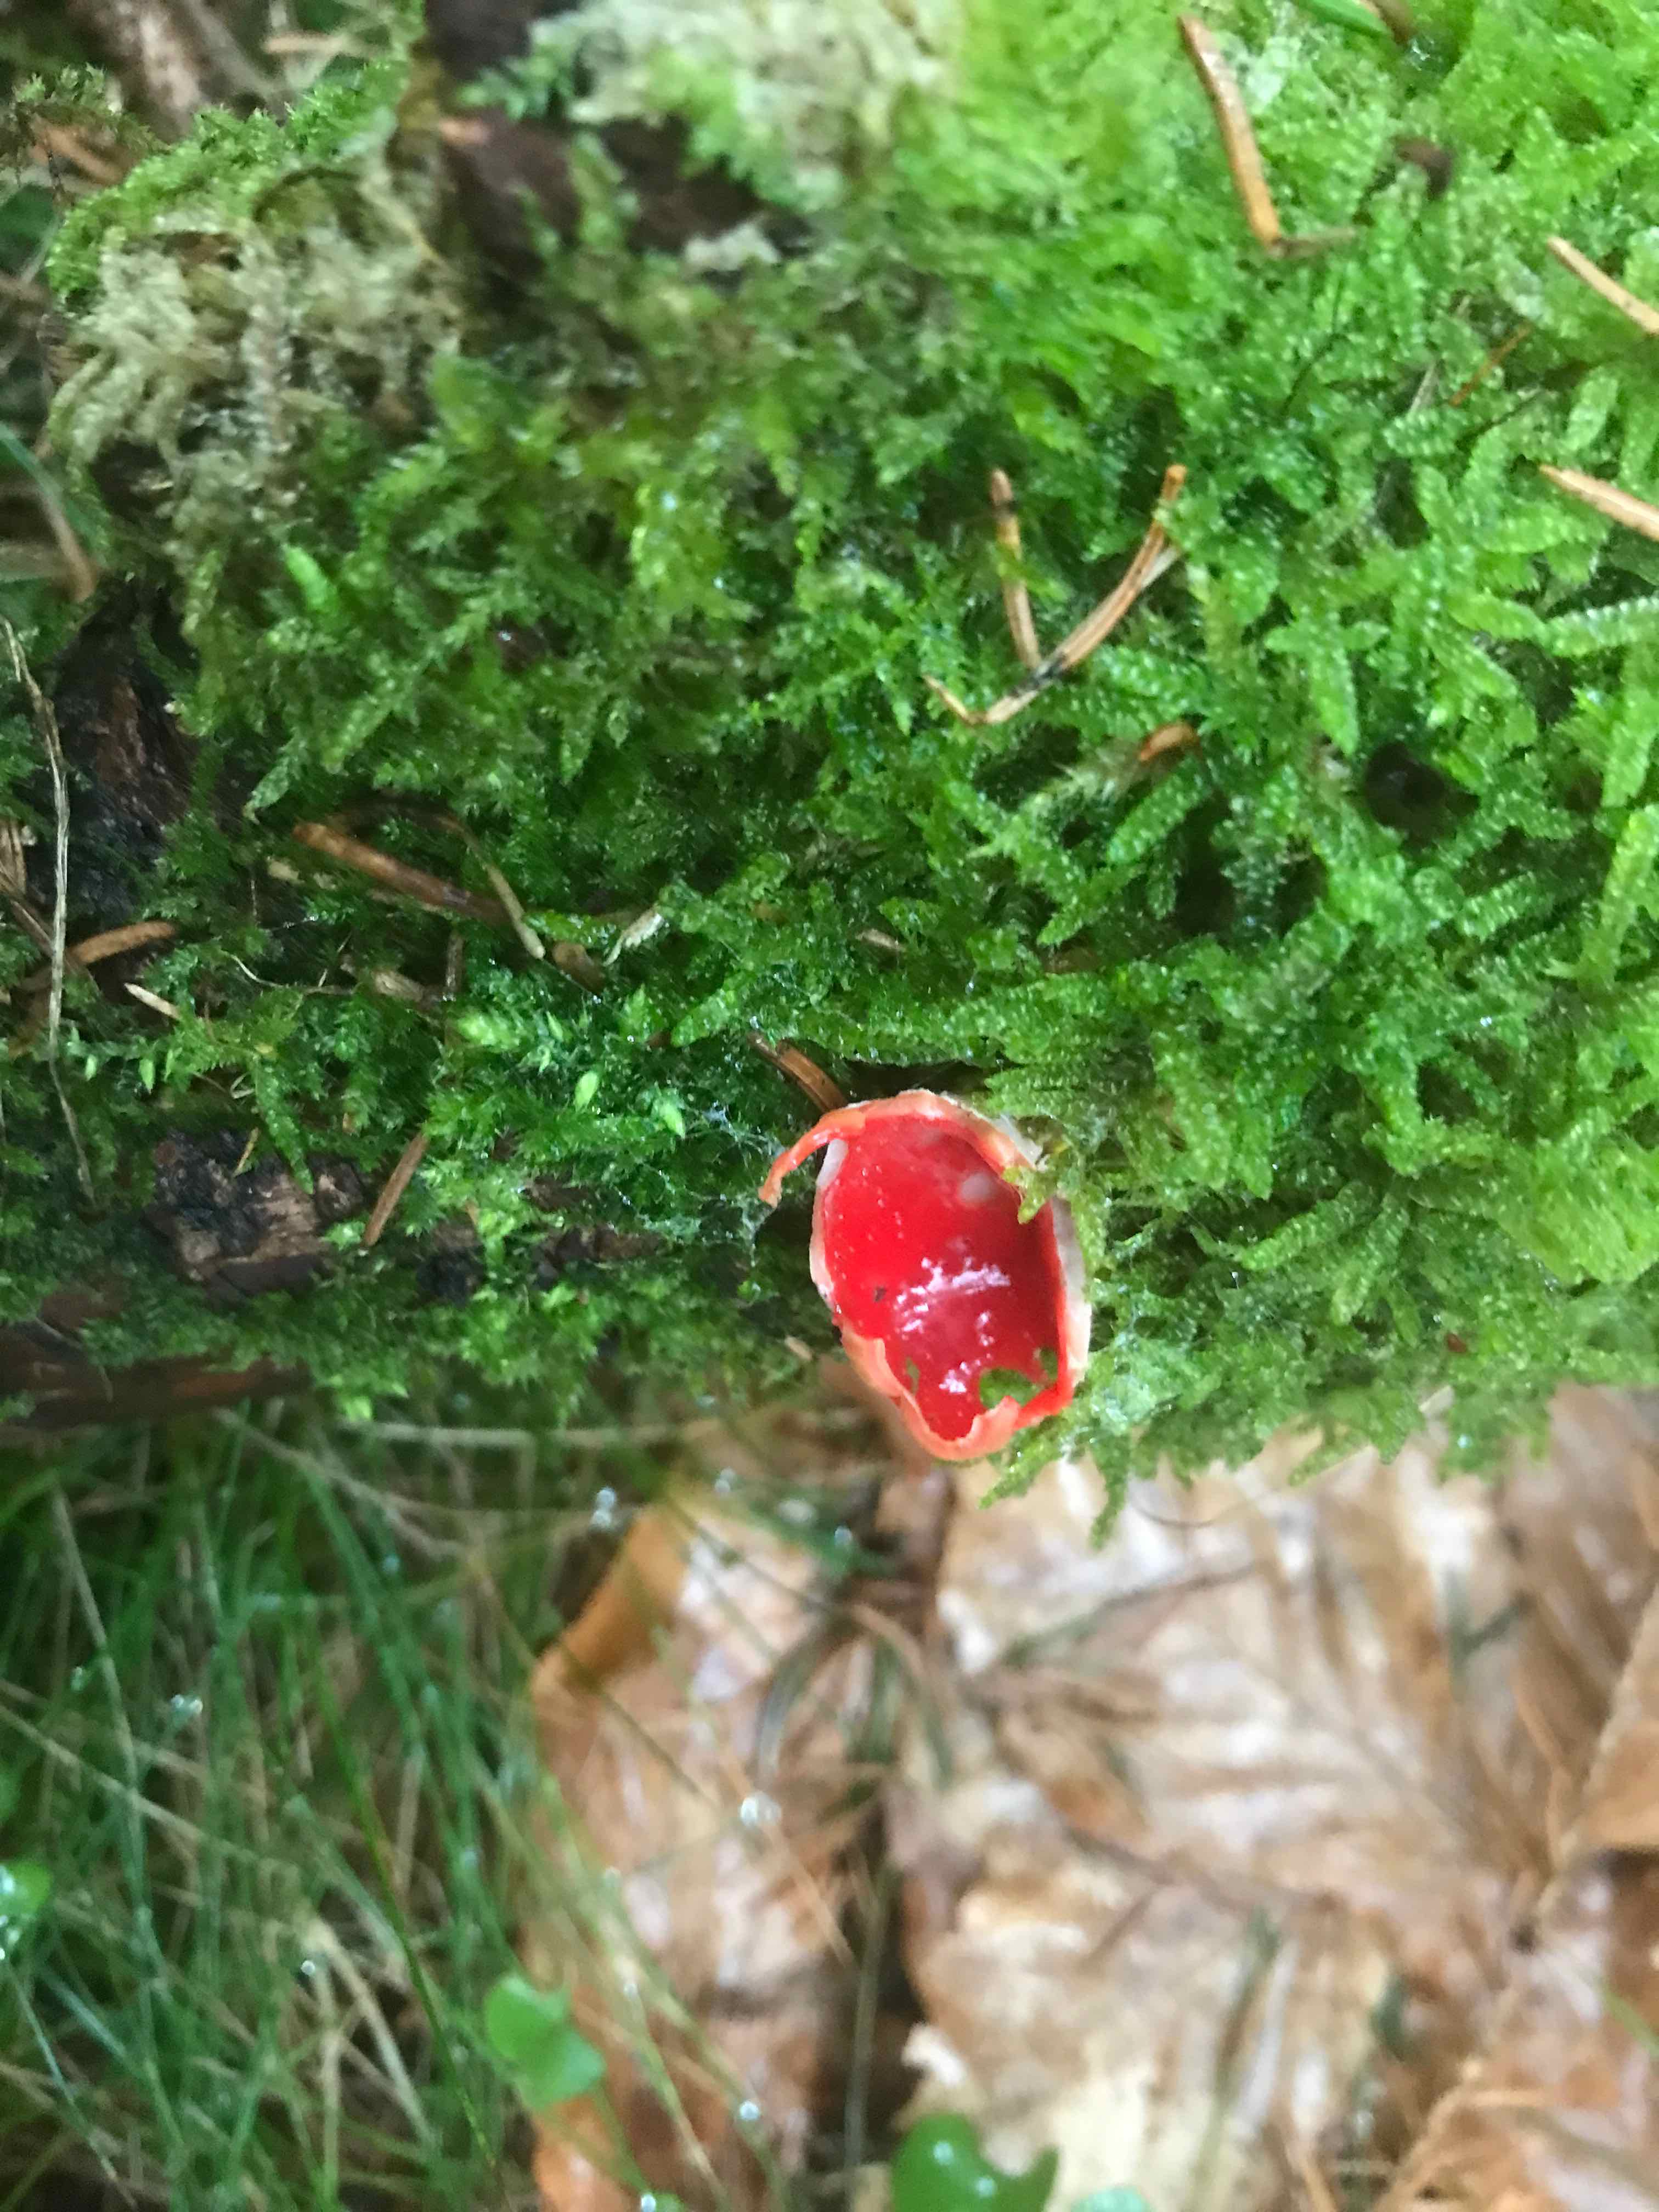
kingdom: Fungi
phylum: Ascomycota
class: Pezizomycetes
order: Pezizales
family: Sarcoscyphaceae
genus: Sarcoscypha
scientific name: Sarcoscypha austriaca
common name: krølhåret pragtbæger
